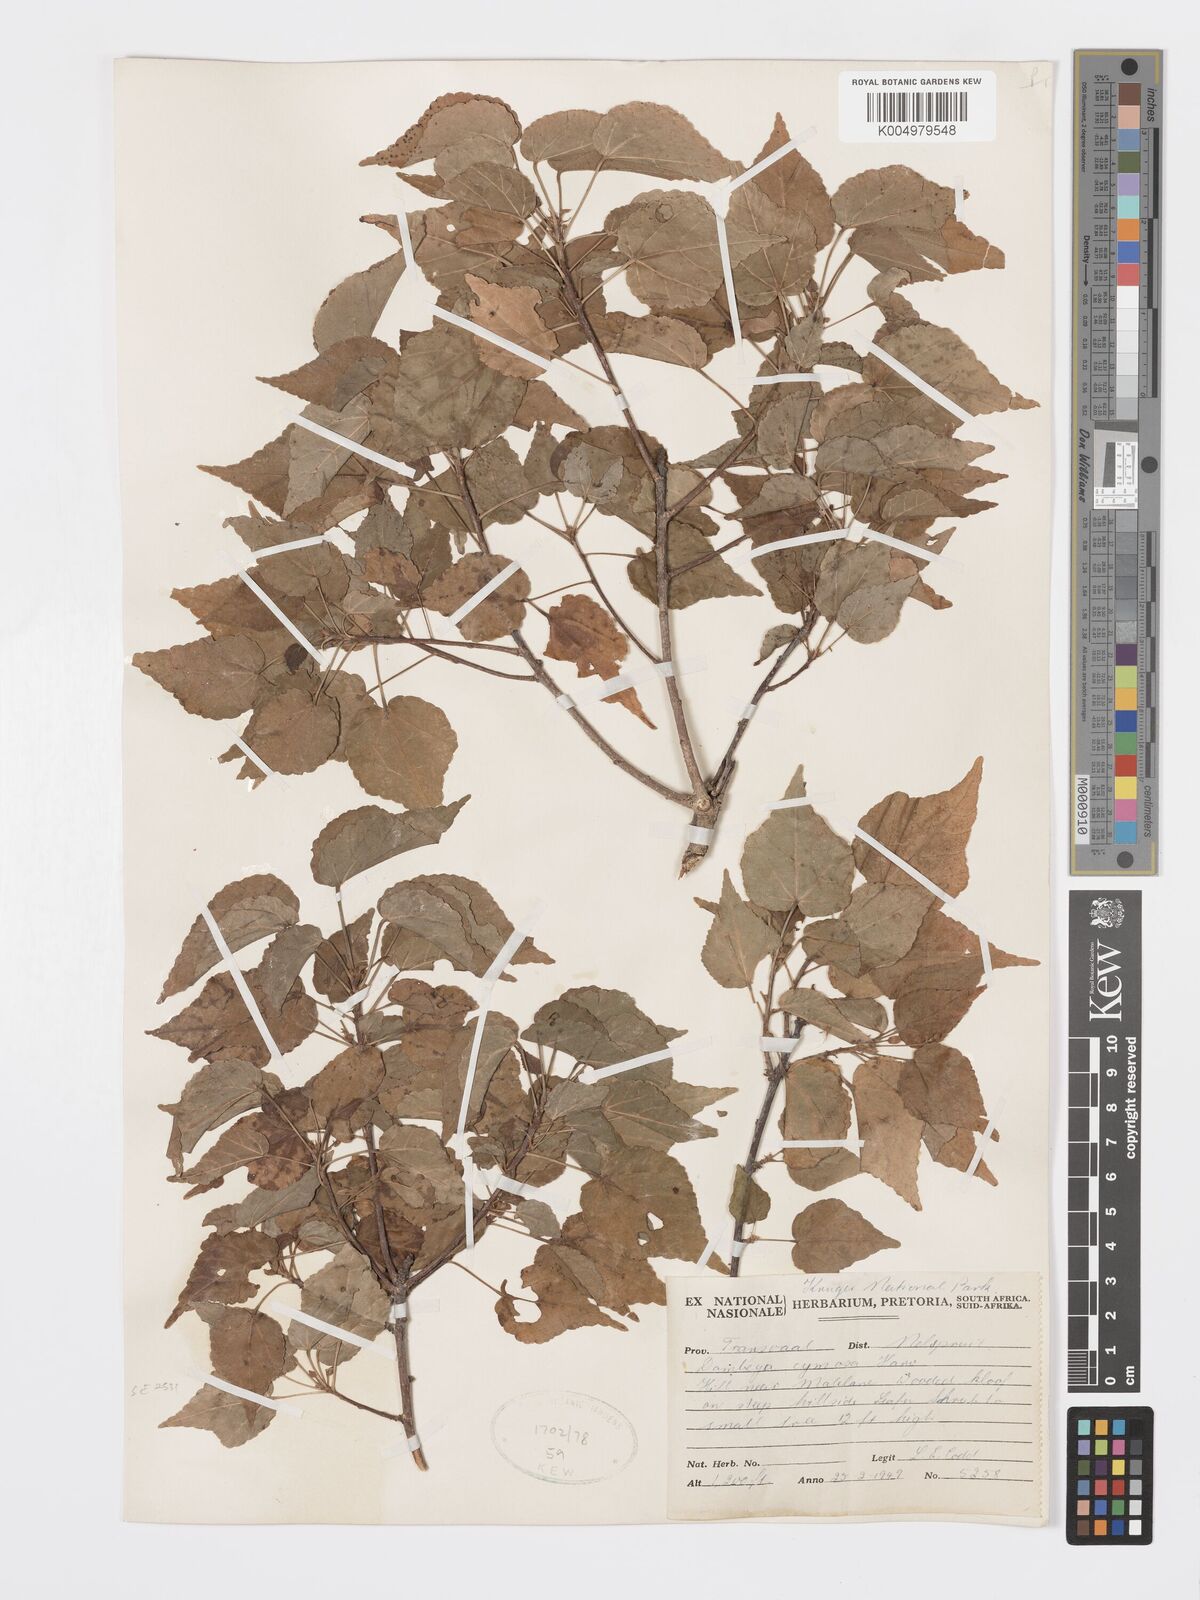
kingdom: Plantae
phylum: Tracheophyta
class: Magnoliopsida
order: Malvales
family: Malvaceae
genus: Dombeya
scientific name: Dombeya cymosa
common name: Hairless dombeya
